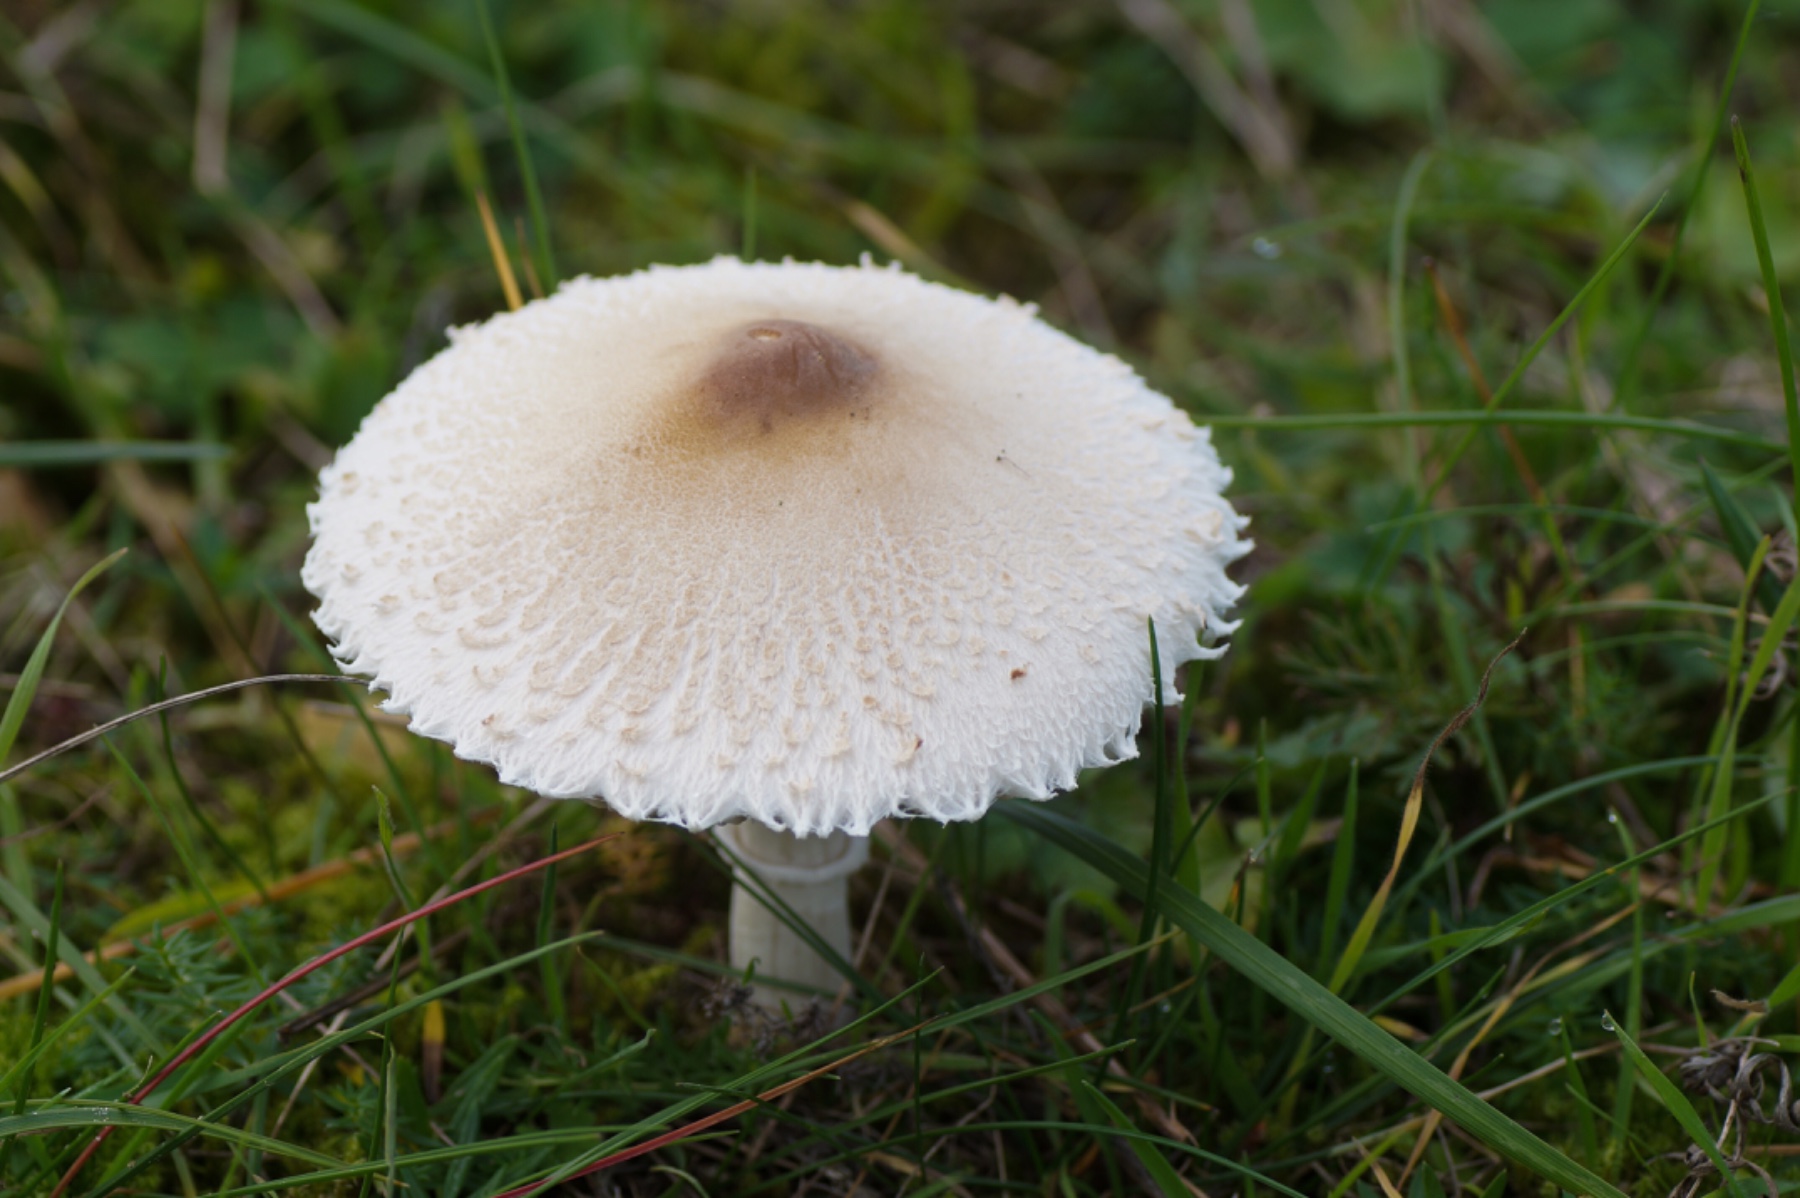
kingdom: Fungi
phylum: Basidiomycota
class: Agaricomycetes
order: Agaricales
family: Agaricaceae
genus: Macrolepiota
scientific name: Macrolepiota excoriata
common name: mark-kæmpeparasolhat
